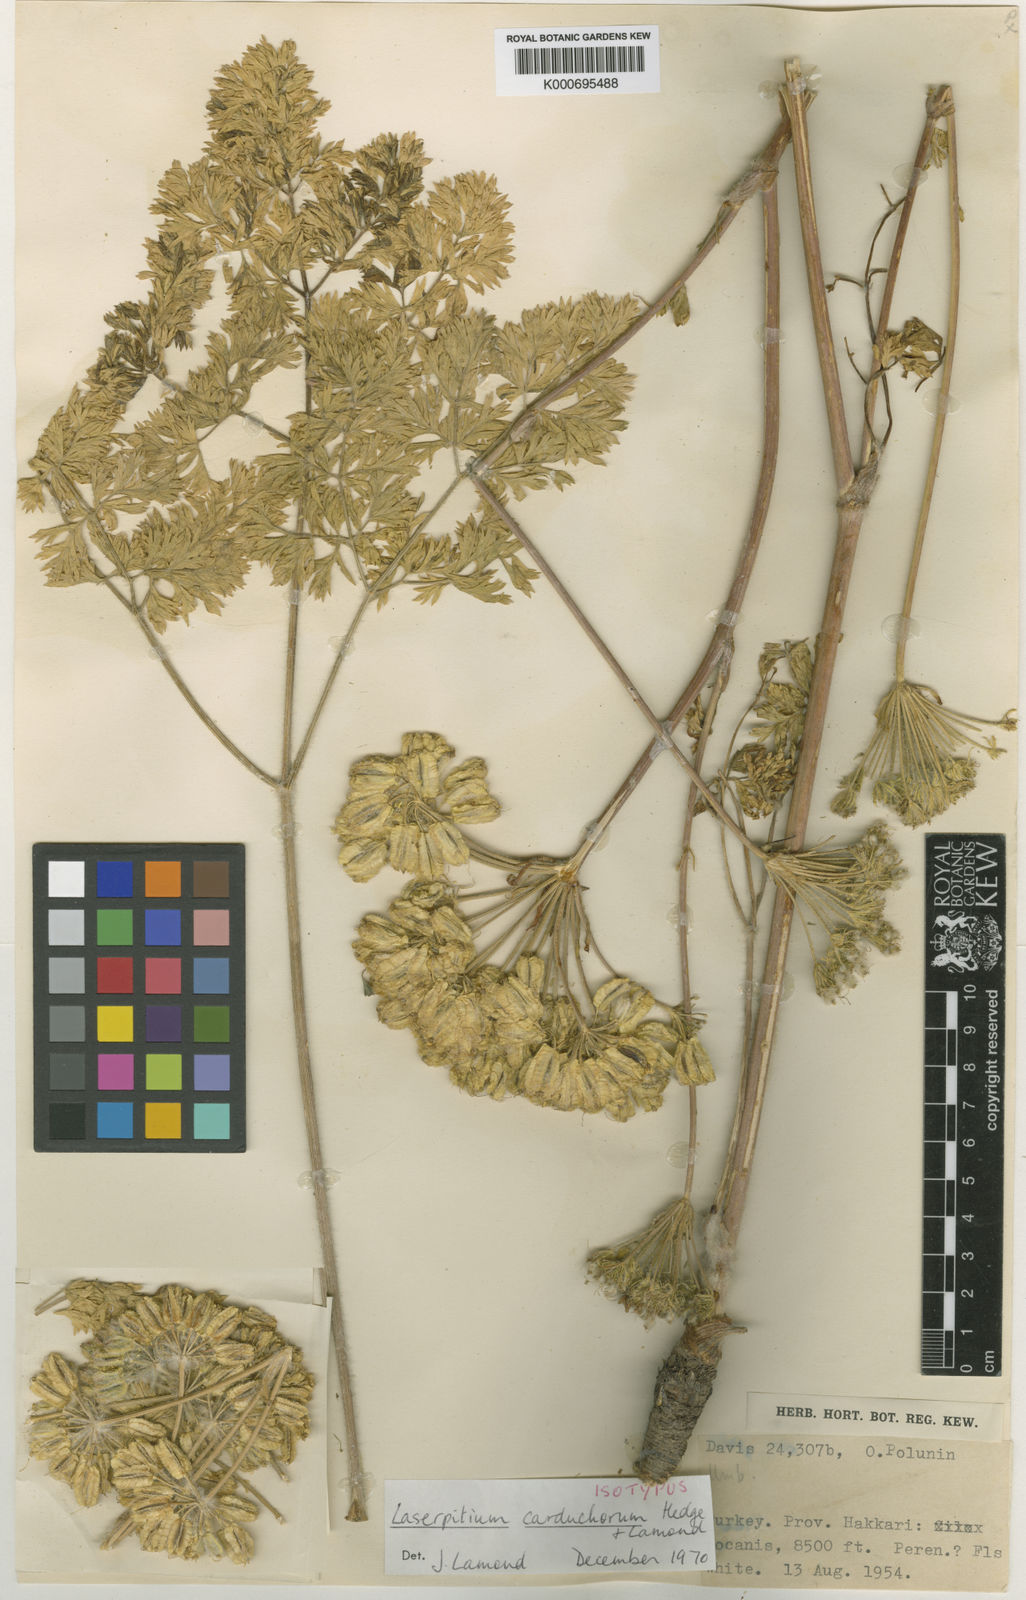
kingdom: Plantae
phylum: Tracheophyta
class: Magnoliopsida
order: Apiales
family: Apiaceae
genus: Laser
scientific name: Laser carduchorum
